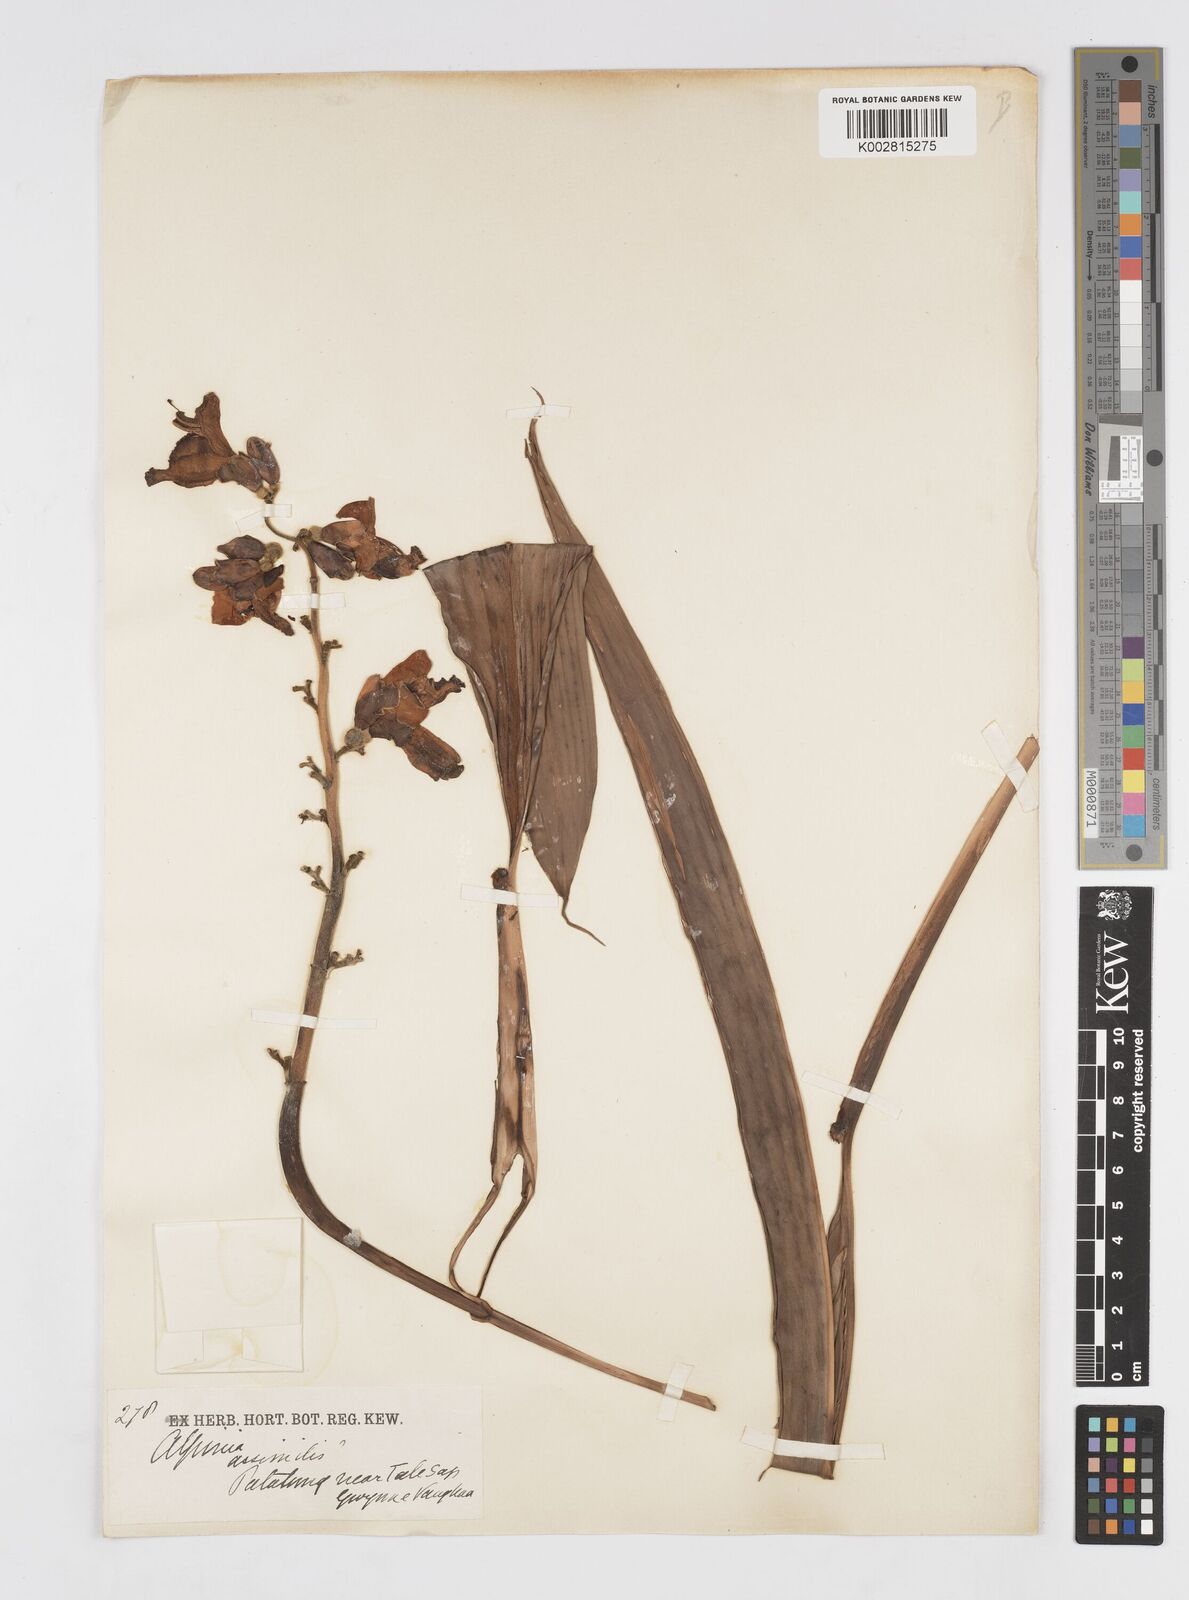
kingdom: Plantae
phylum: Tracheophyta
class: Liliopsida
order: Zingiberales
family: Zingiberaceae
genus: Alpinia
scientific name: Alpinia assimilis
